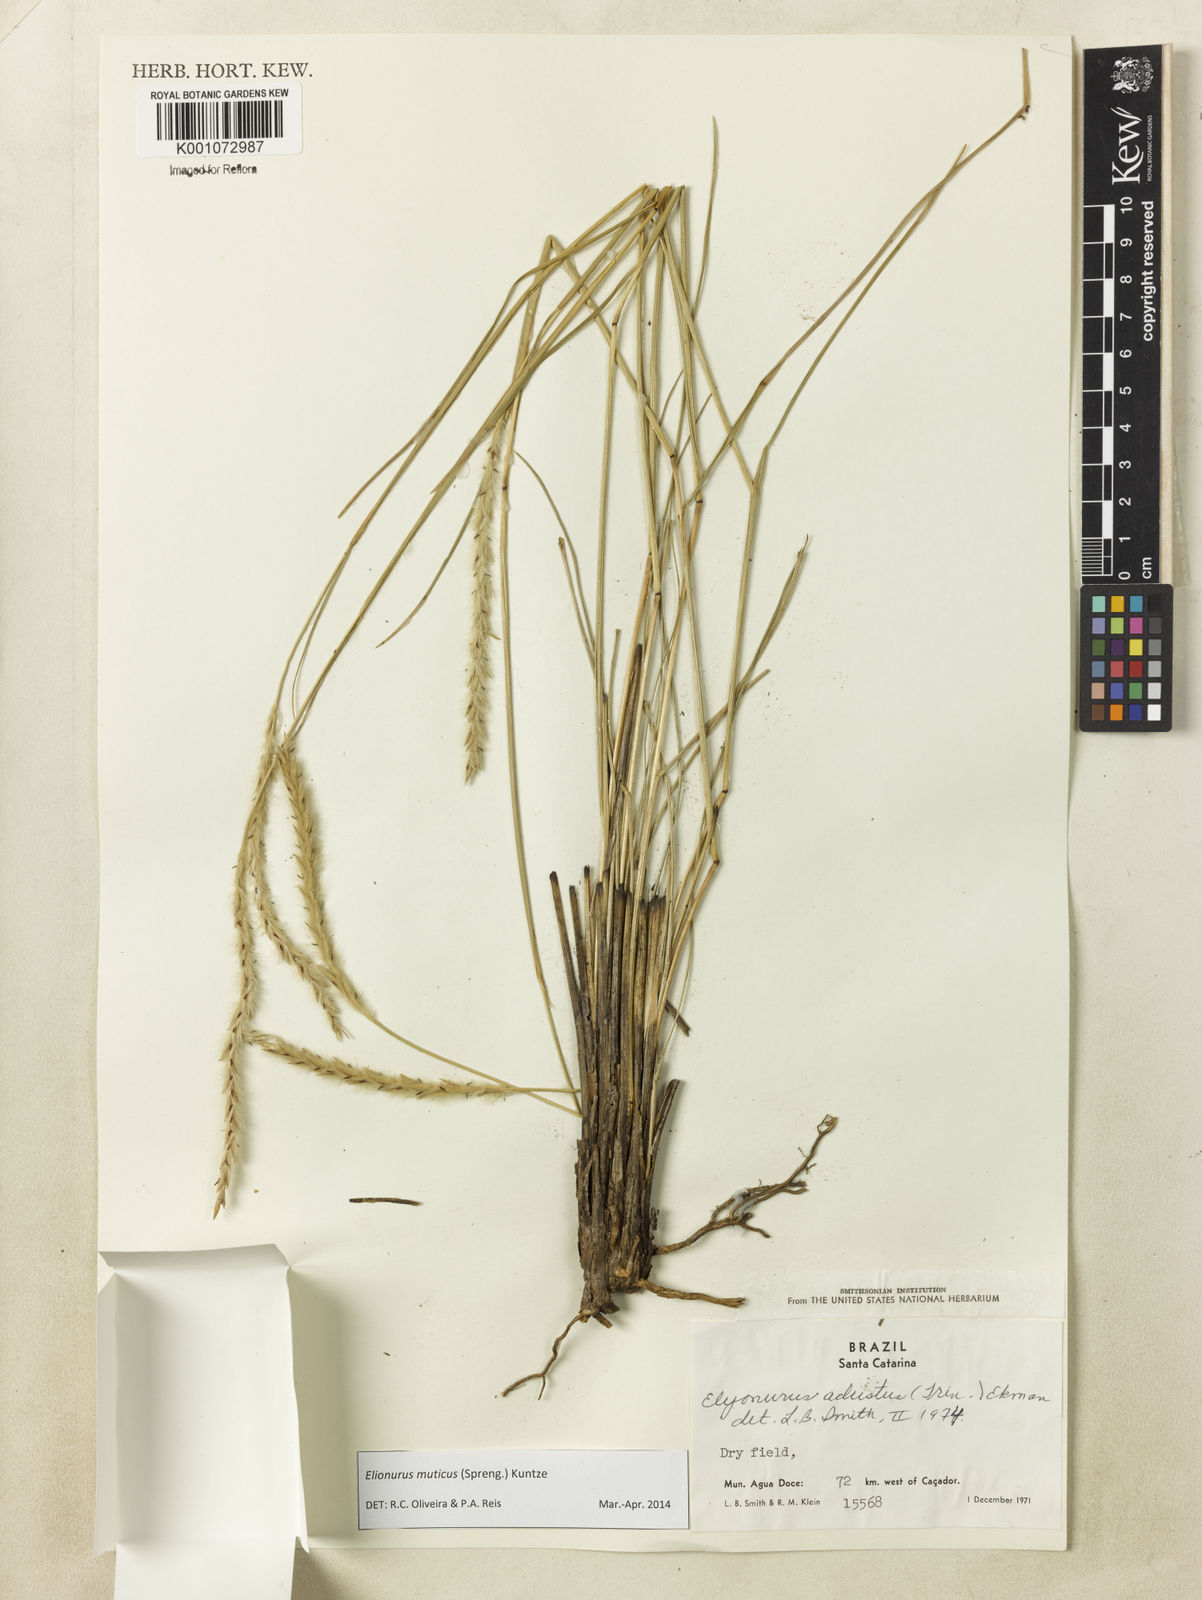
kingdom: Plantae
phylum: Tracheophyta
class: Liliopsida
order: Poales
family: Poaceae
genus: Elionurus
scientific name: Elionurus muticus
